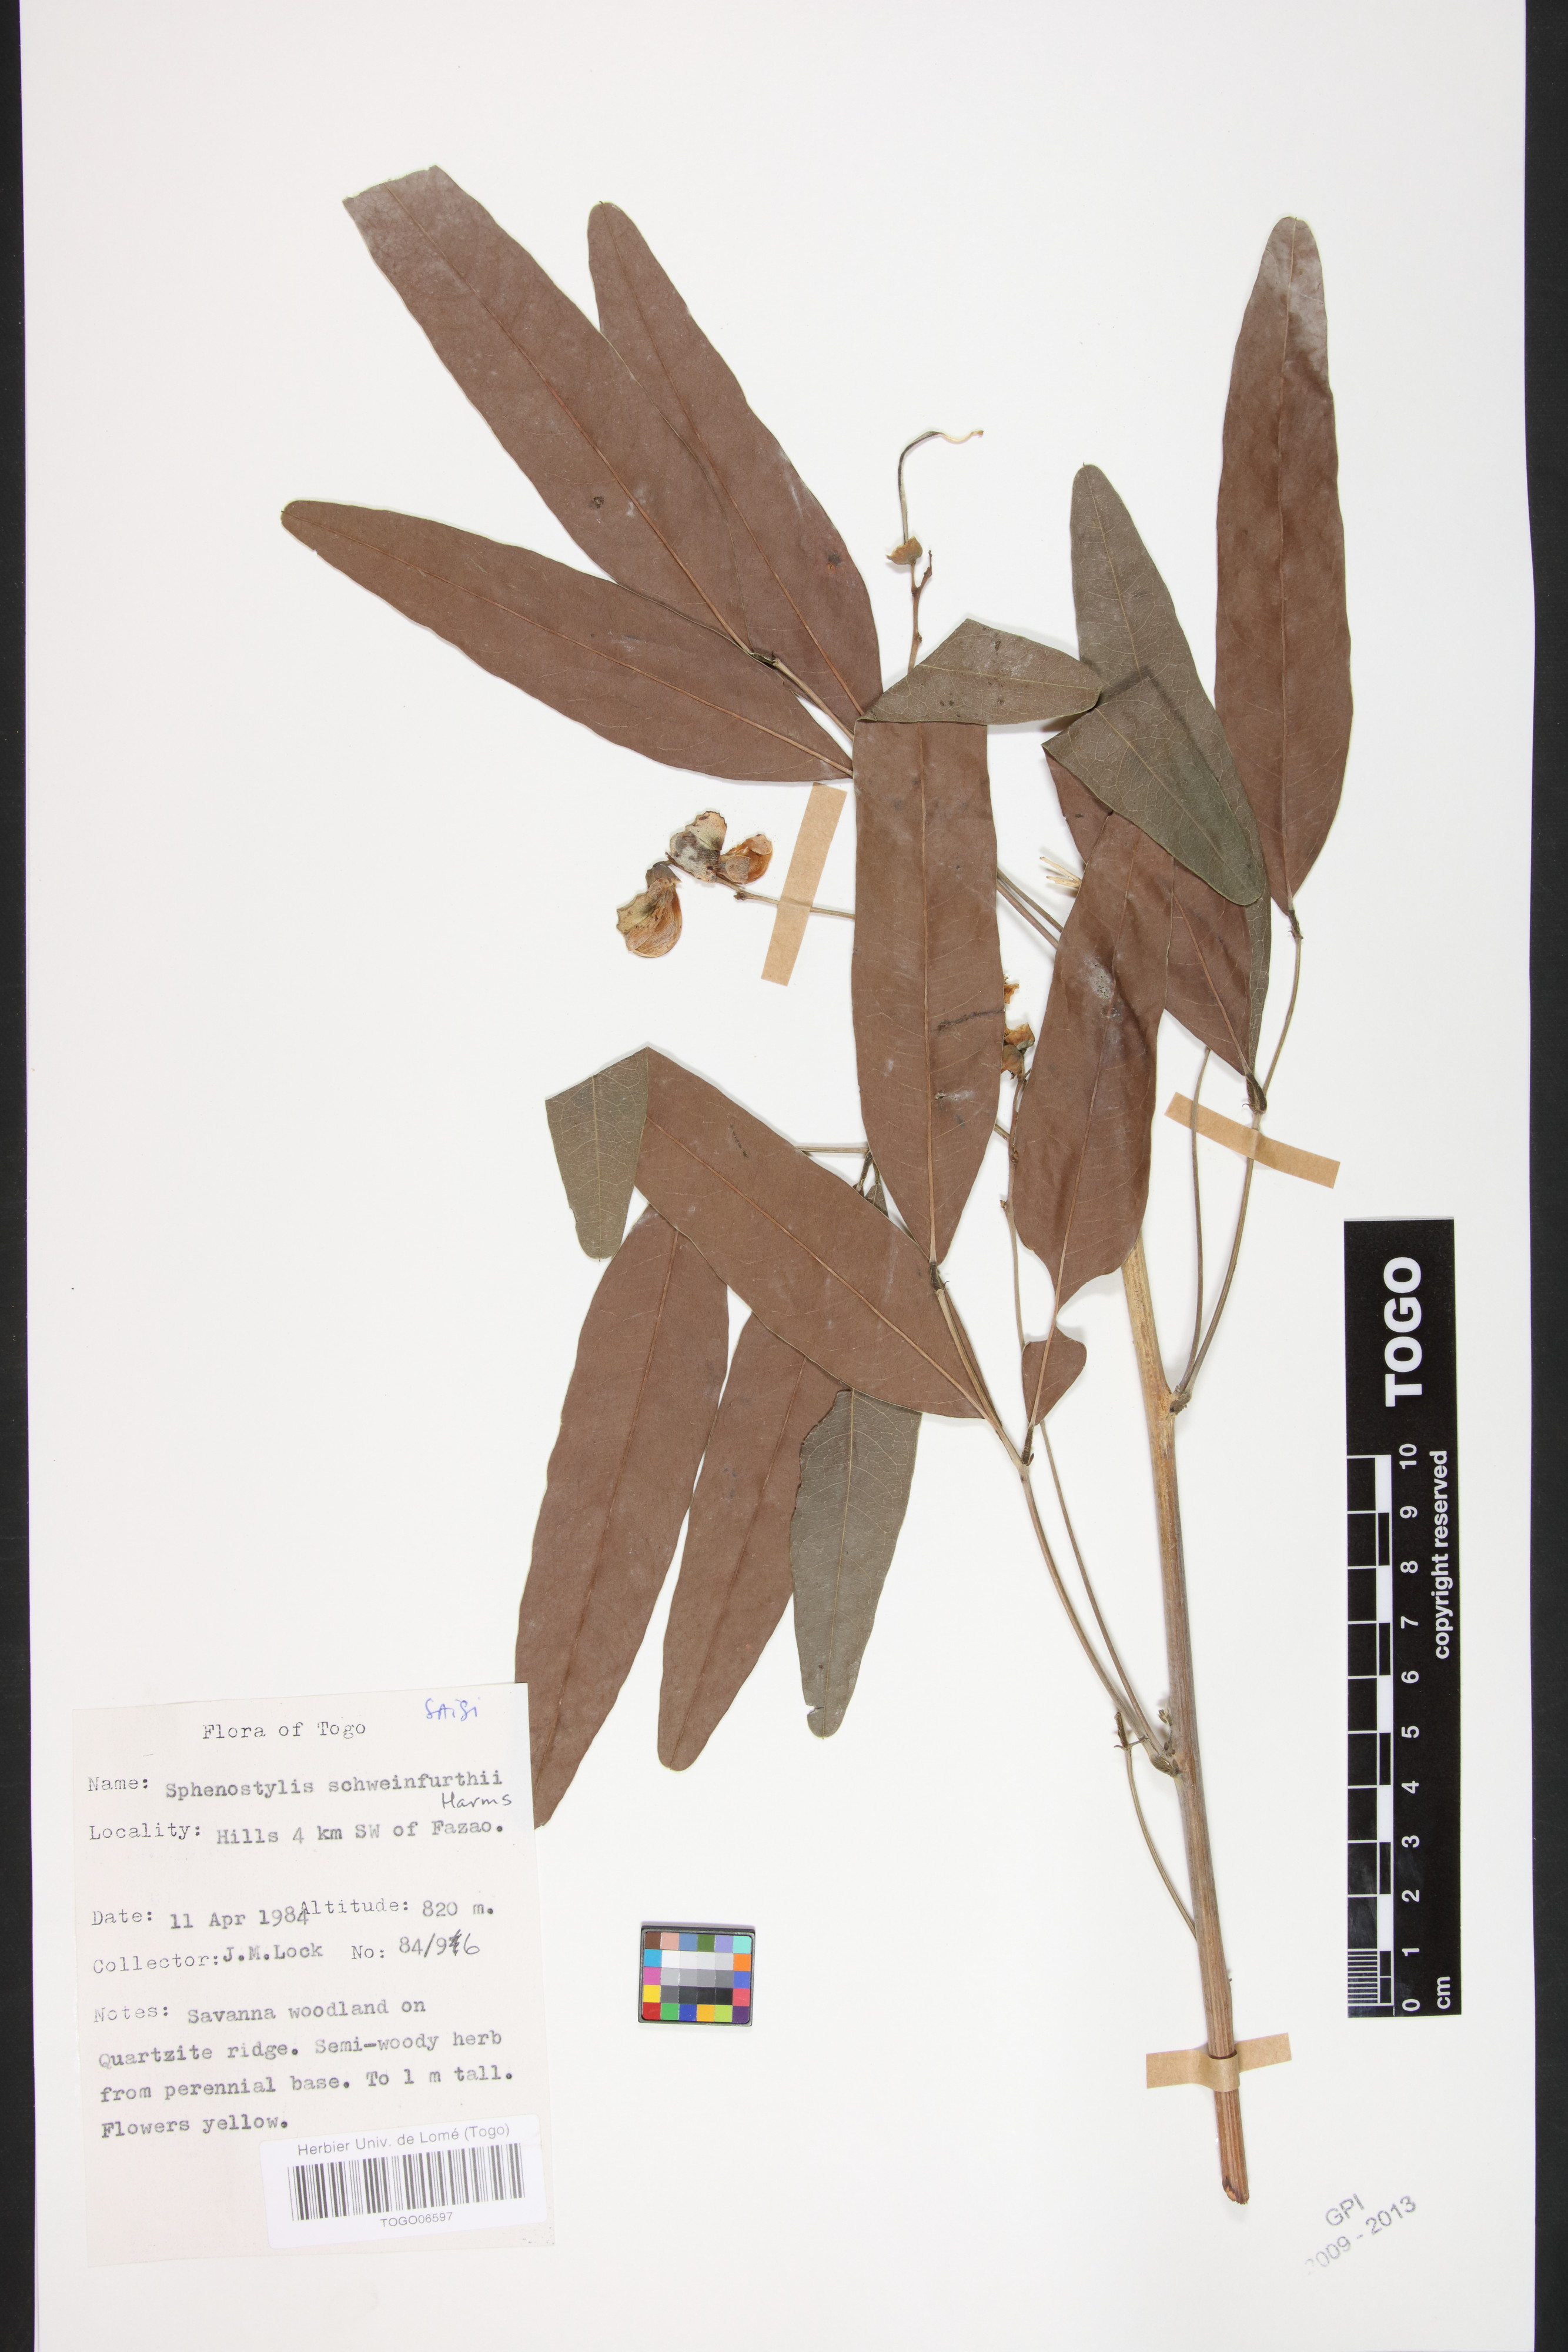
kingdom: Plantae
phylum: Tracheophyta
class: Magnoliopsida
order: Fabales
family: Fabaceae
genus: Sphenostylis
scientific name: Sphenostylis schweinfurthii
